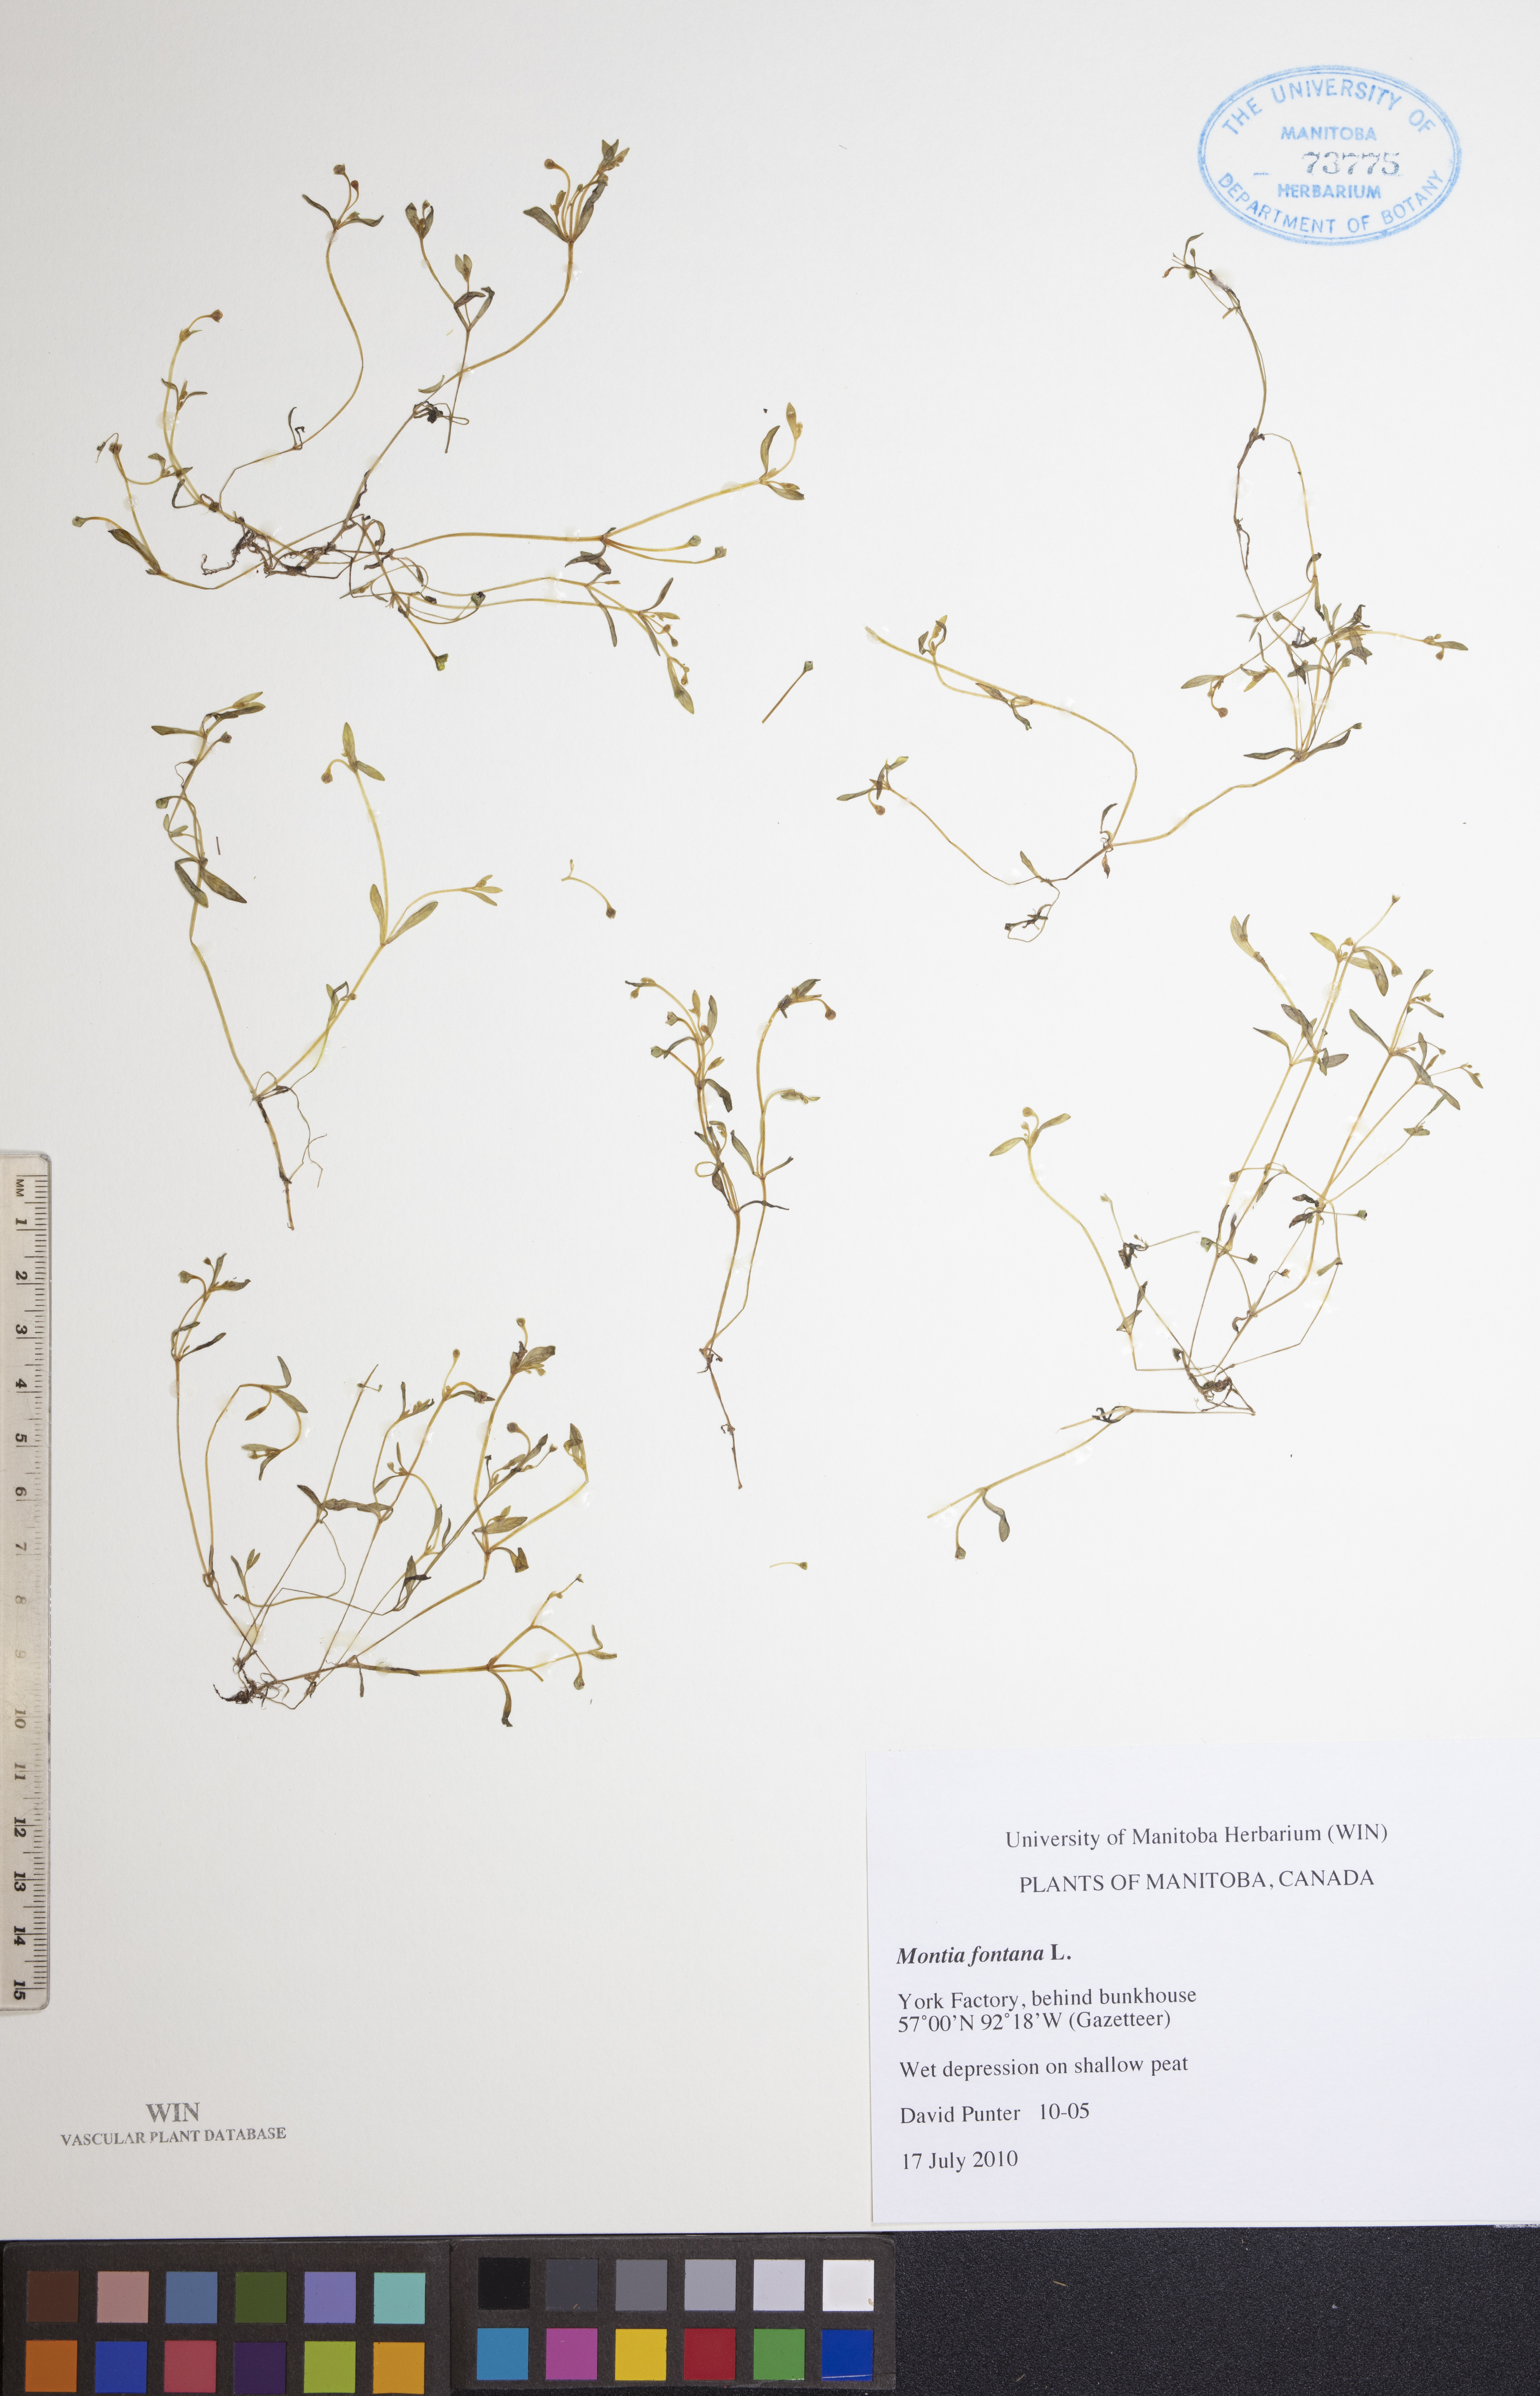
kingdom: Plantae
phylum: Tracheophyta
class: Magnoliopsida
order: Caryophyllales
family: Montiaceae
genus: Montia
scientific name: Montia fontana
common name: Blinks
